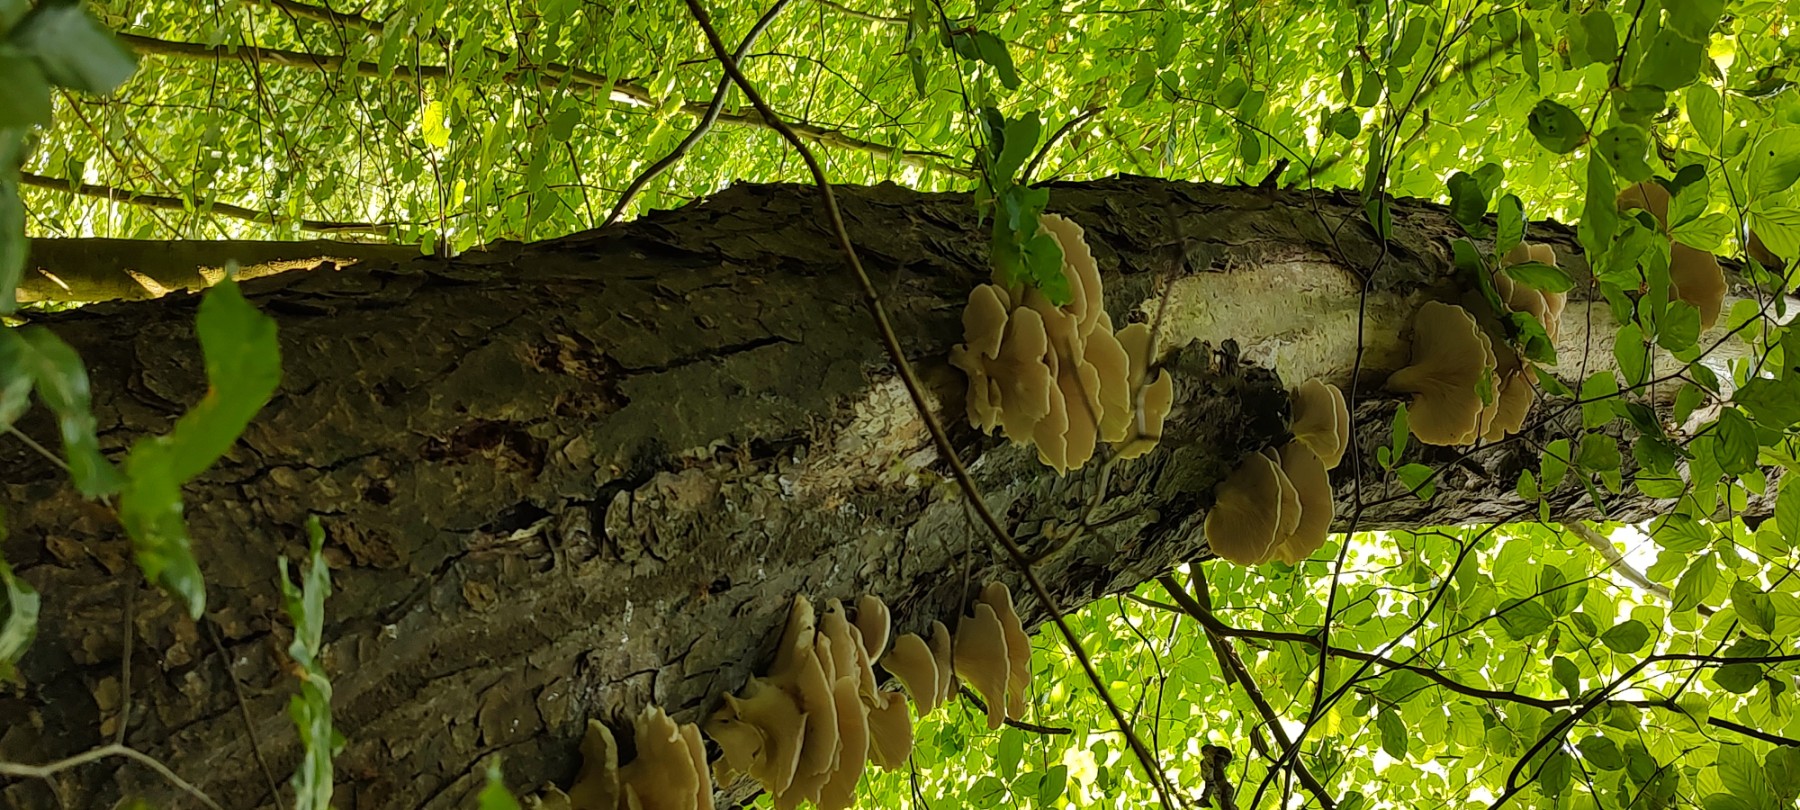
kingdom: Fungi
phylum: Basidiomycota
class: Agaricomycetes
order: Agaricales
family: Pleurotaceae
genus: Pleurotus
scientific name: Pleurotus pulmonarius
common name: sommer-østershat
